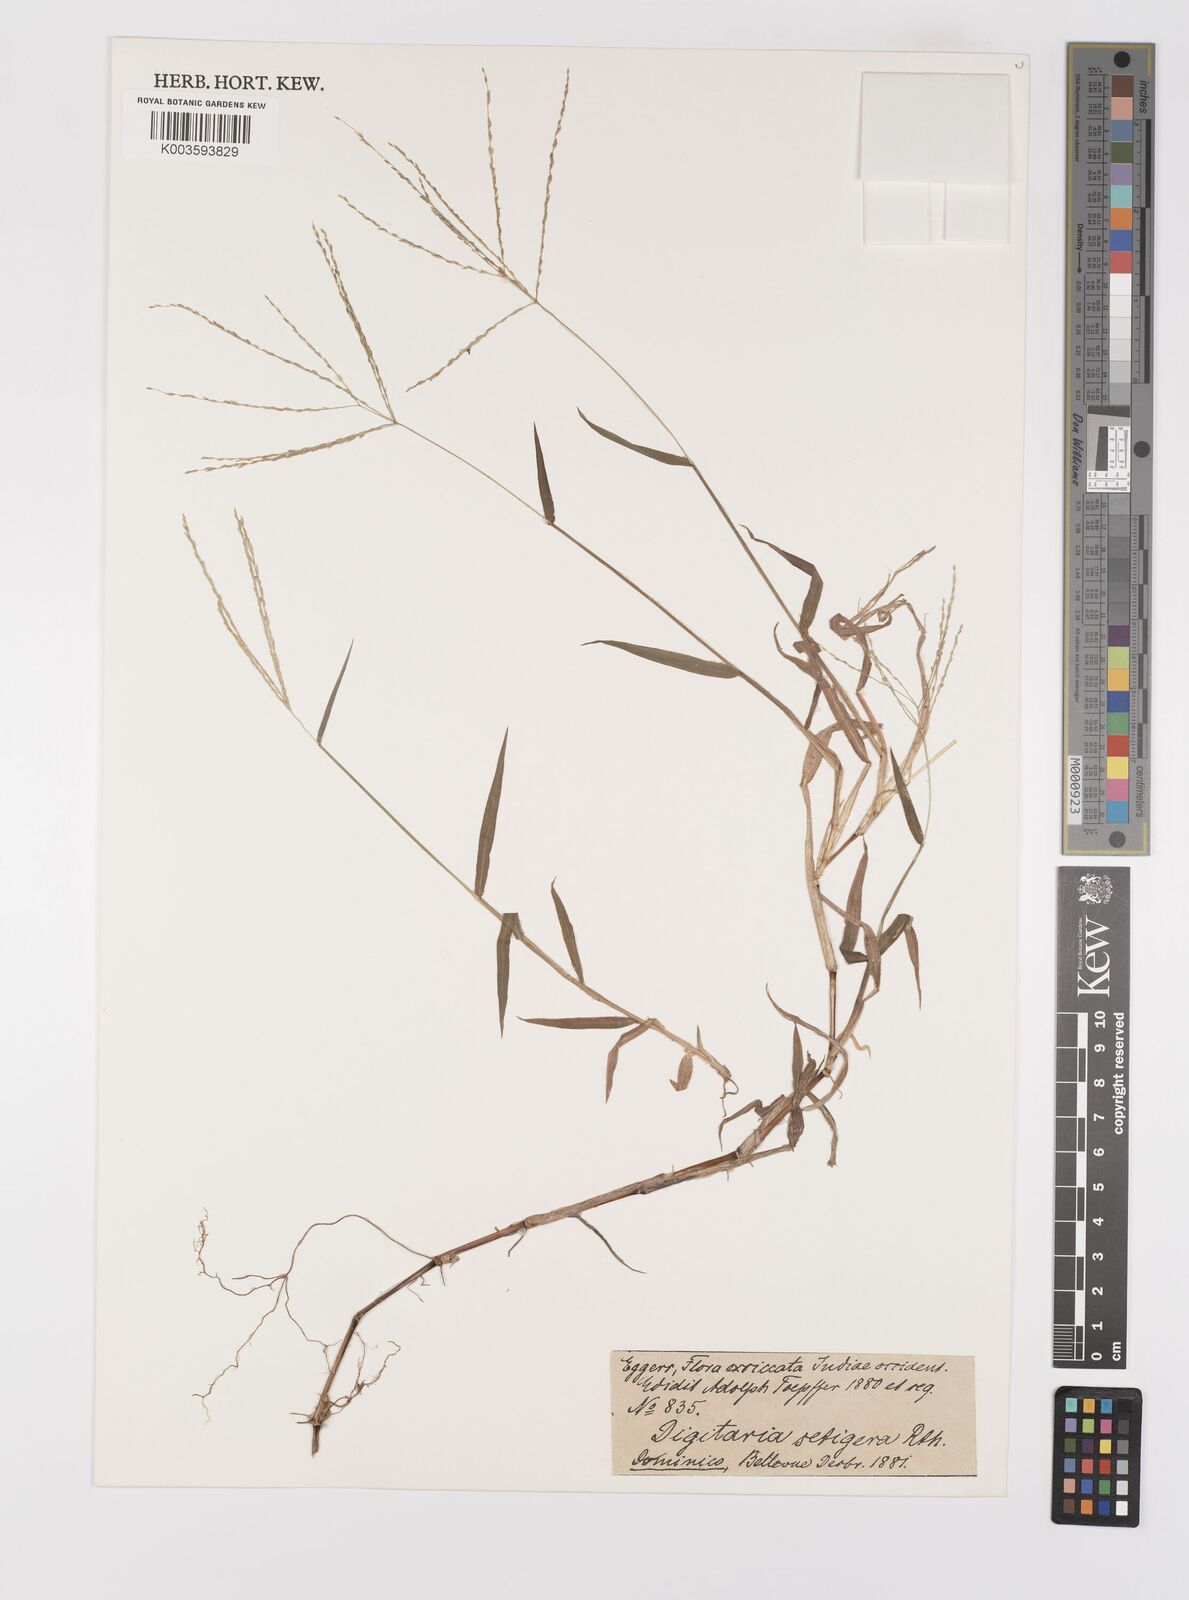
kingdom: Plantae
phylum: Tracheophyta
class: Liliopsida
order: Poales
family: Poaceae
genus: Digitaria
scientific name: Digitaria
